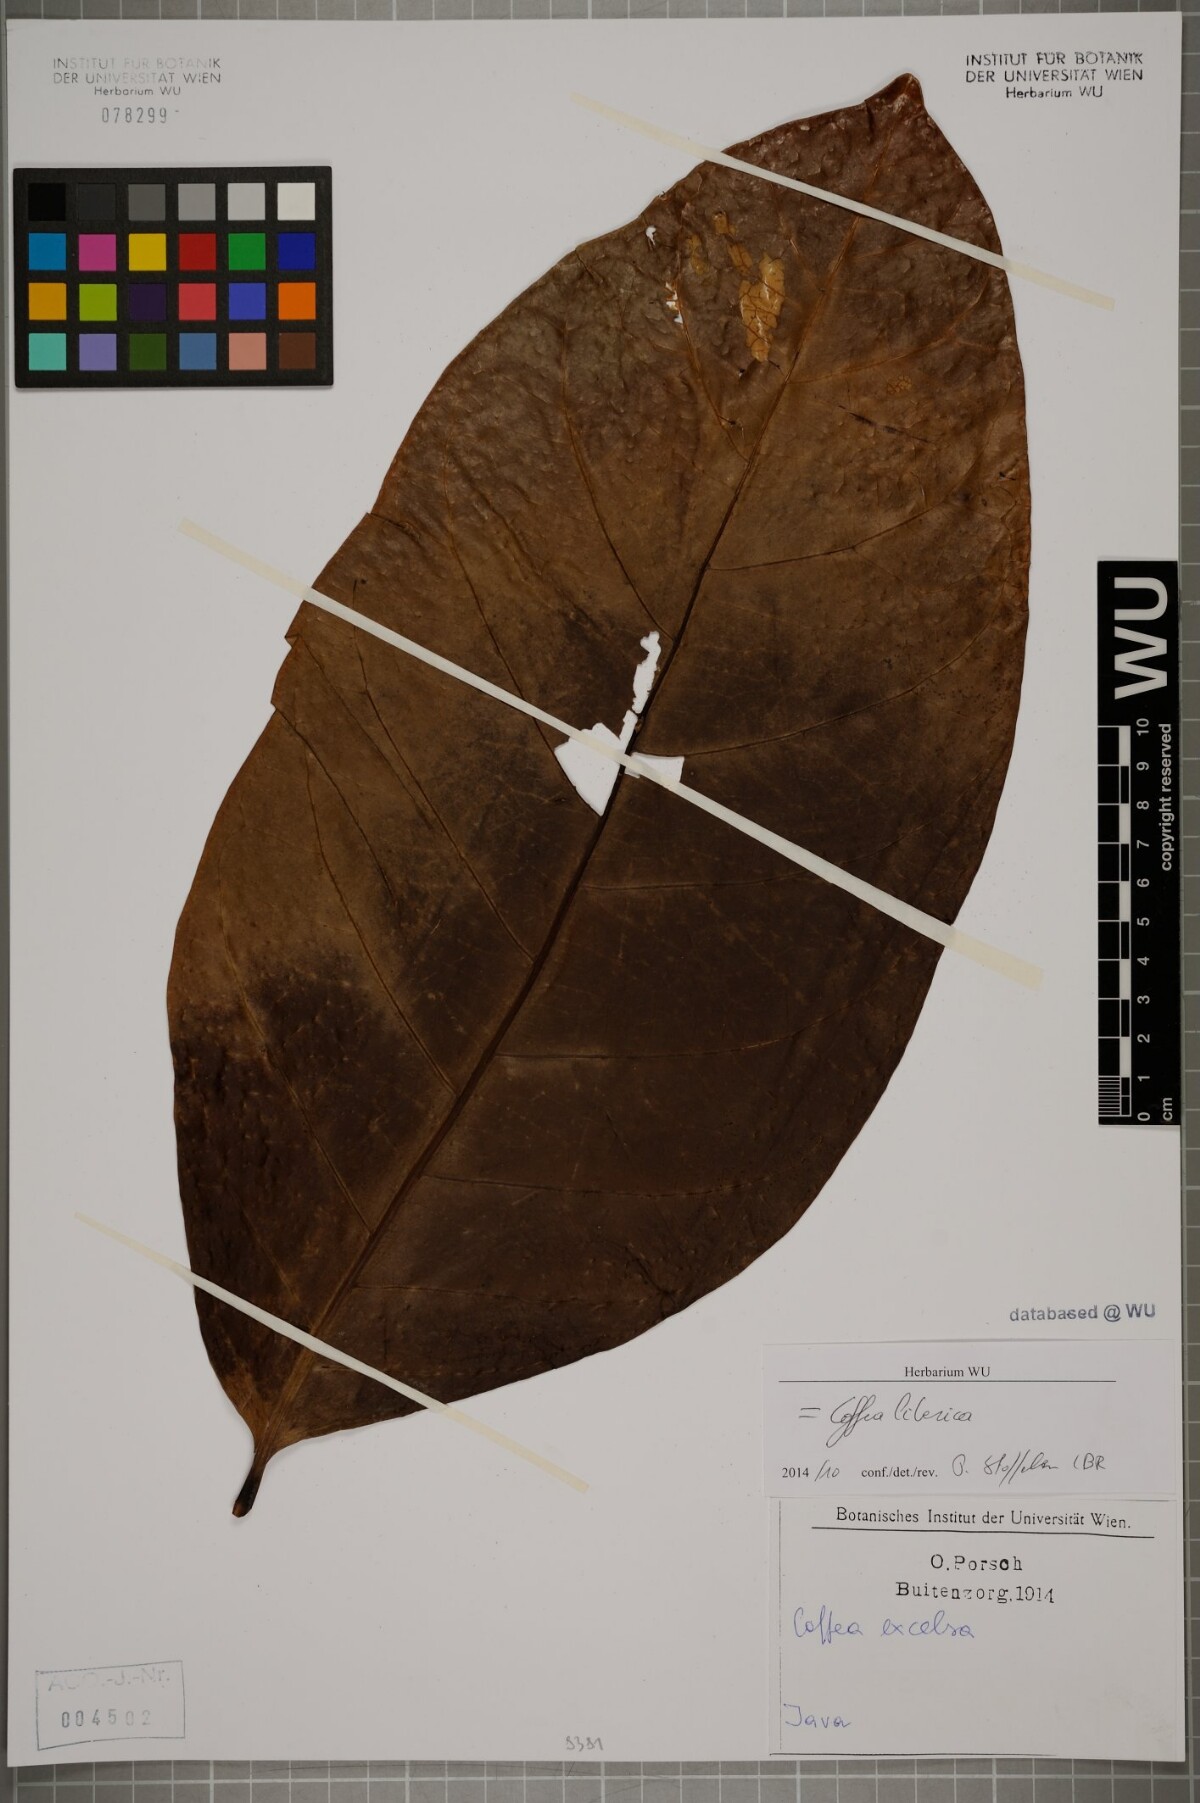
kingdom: Plantae
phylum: Tracheophyta
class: Magnoliopsida
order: Gentianales
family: Rubiaceae
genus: Coffea
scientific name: Coffea liberica
